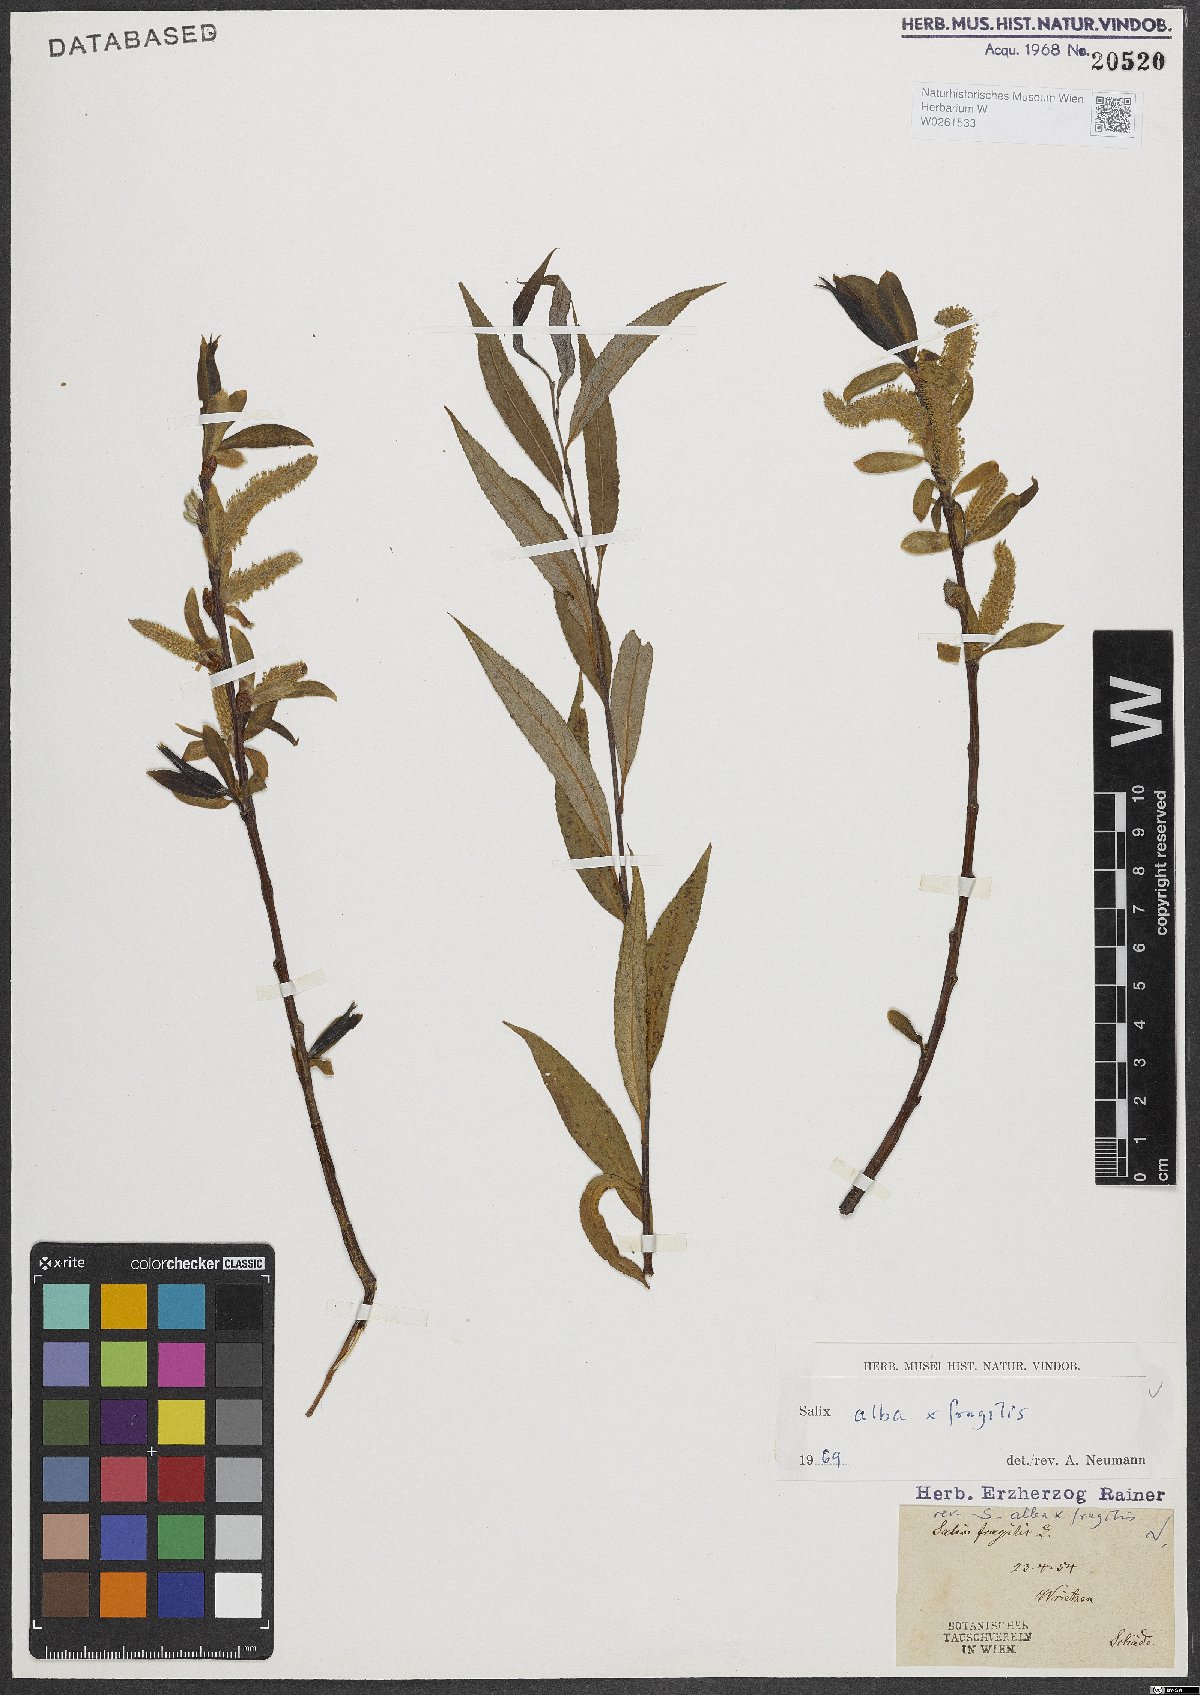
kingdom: Plantae
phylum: Tracheophyta
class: Magnoliopsida
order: Malpighiales
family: Salicaceae
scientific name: Salicaceae
